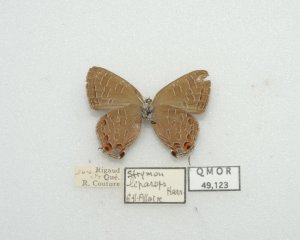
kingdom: Animalia
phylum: Arthropoda
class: Insecta
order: Lepidoptera
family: Lycaenidae
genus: Satyrium
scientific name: Satyrium liparops
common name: Striped Hairstreak
